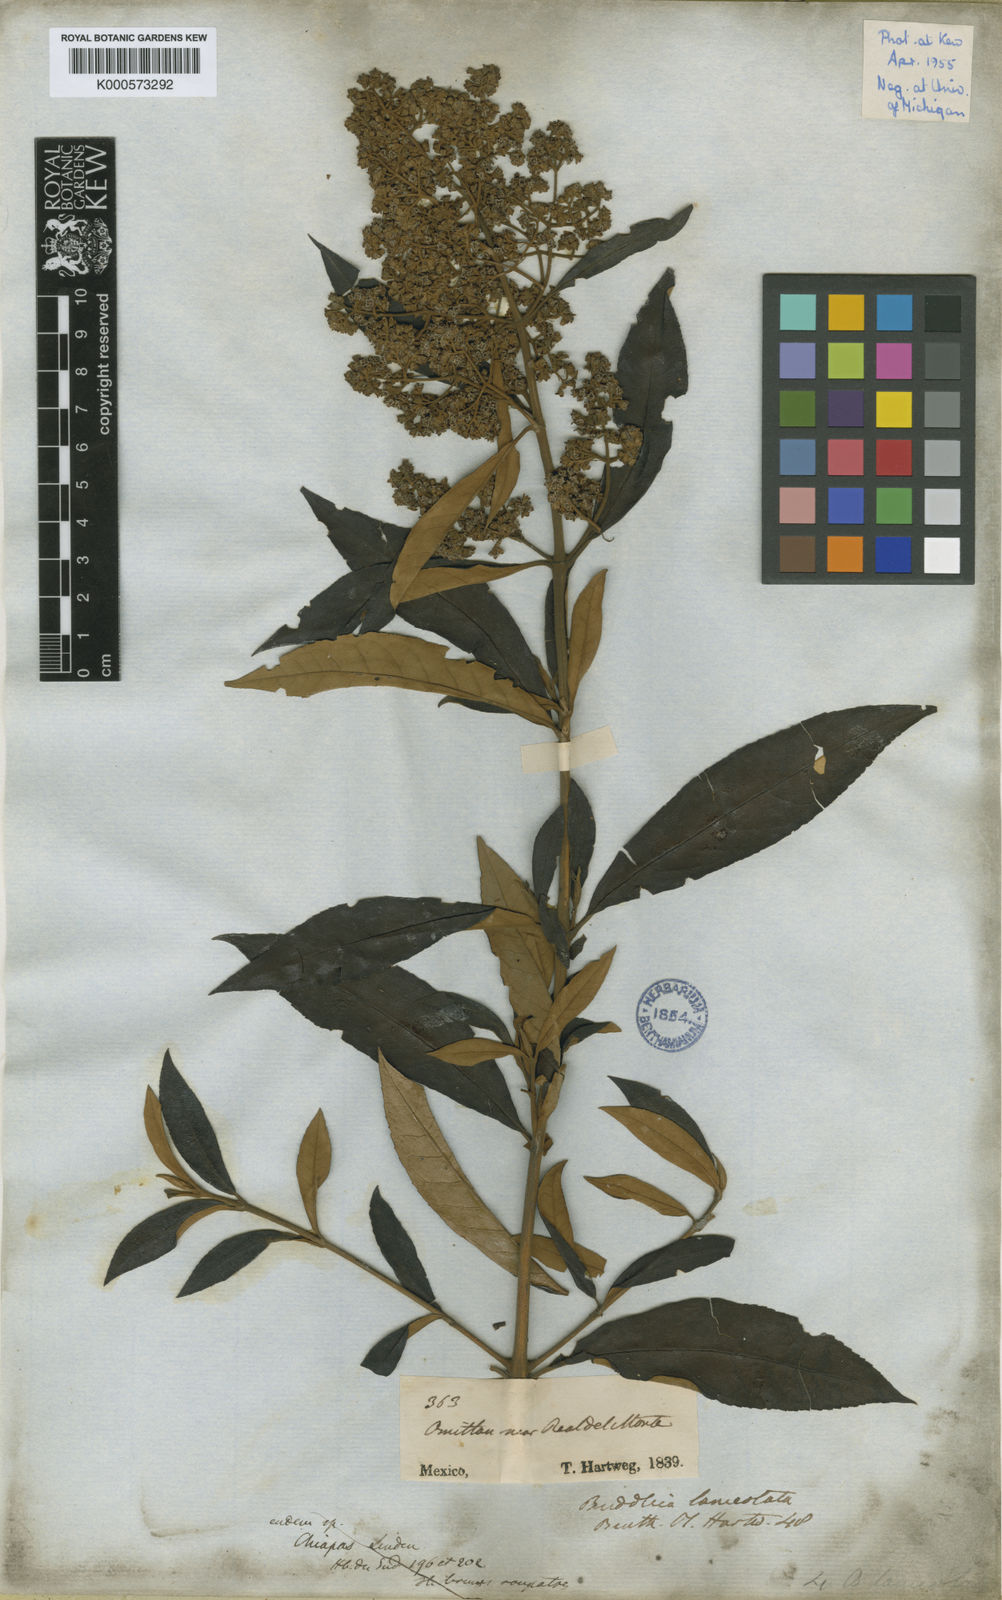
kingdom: Plantae
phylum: Tracheophyta
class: Magnoliopsida
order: Lamiales
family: Scrophulariaceae
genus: Buddleja
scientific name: Buddleja parviflora
